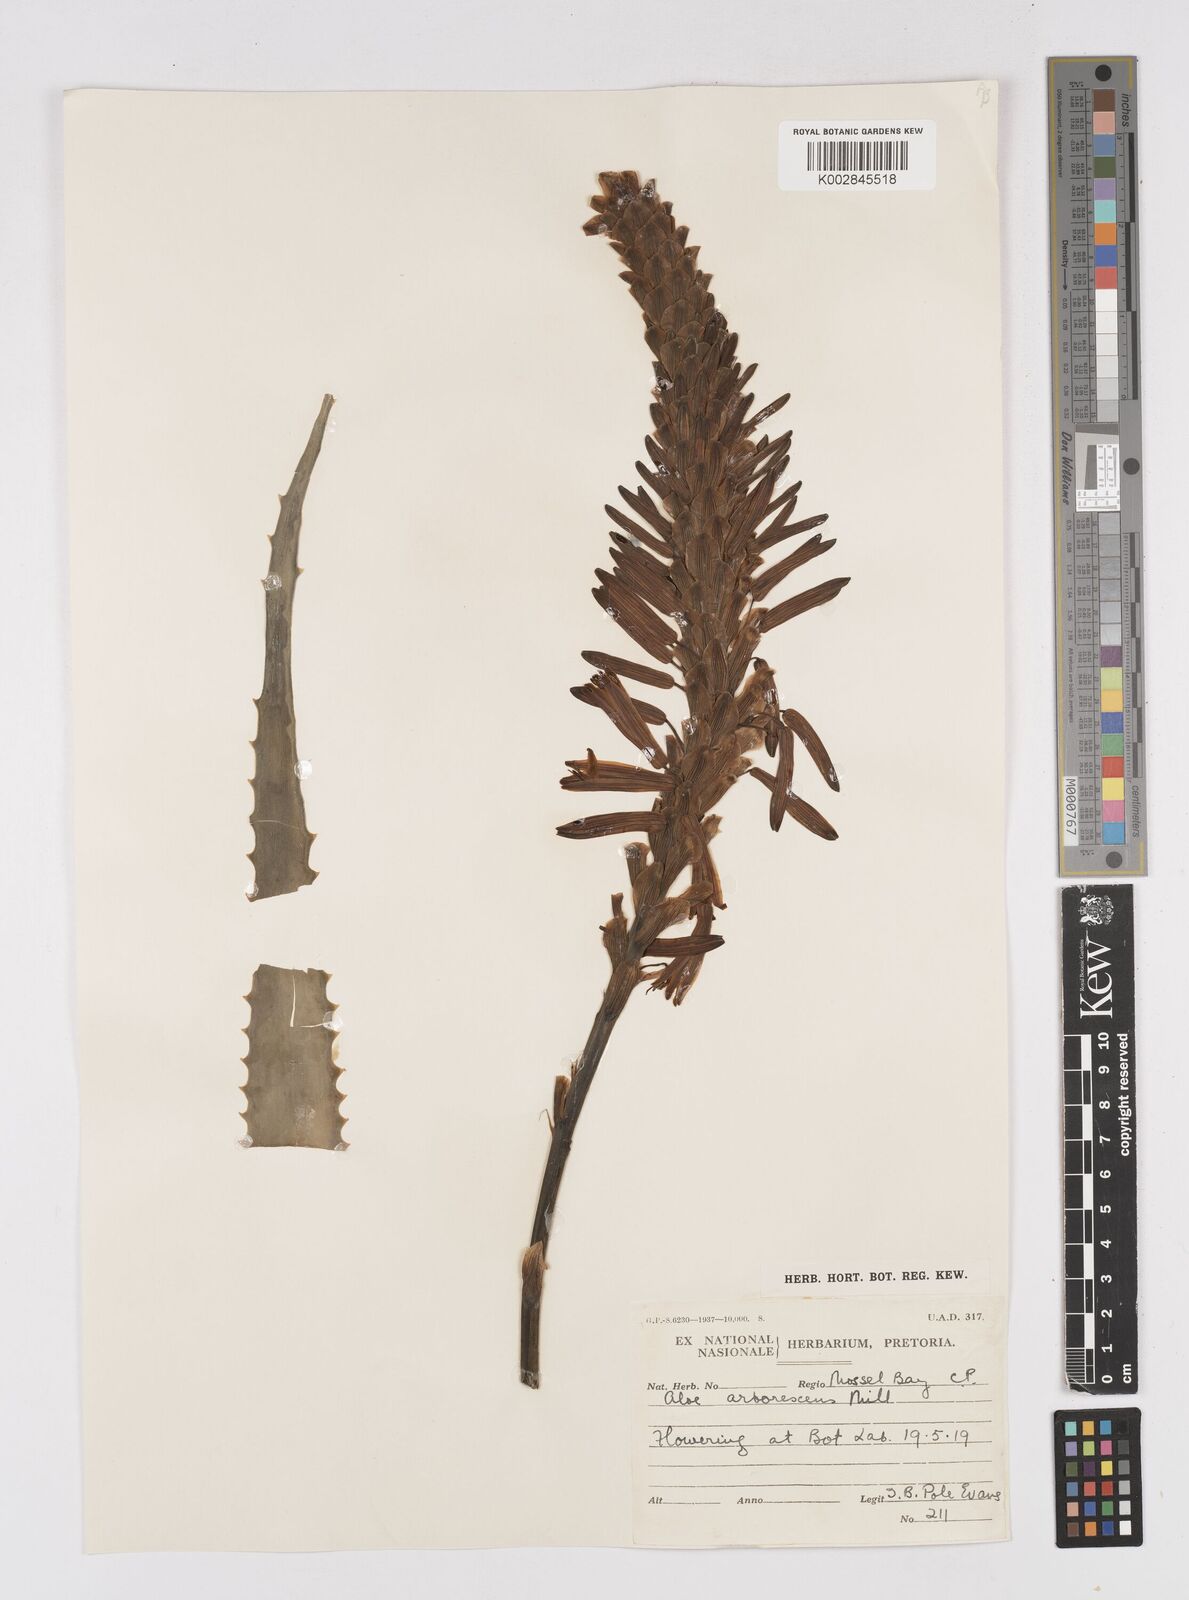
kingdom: Plantae
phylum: Tracheophyta
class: Liliopsida
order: Asparagales
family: Asphodelaceae
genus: Aloe
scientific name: Aloe arborescens
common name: Candelabra aloe
